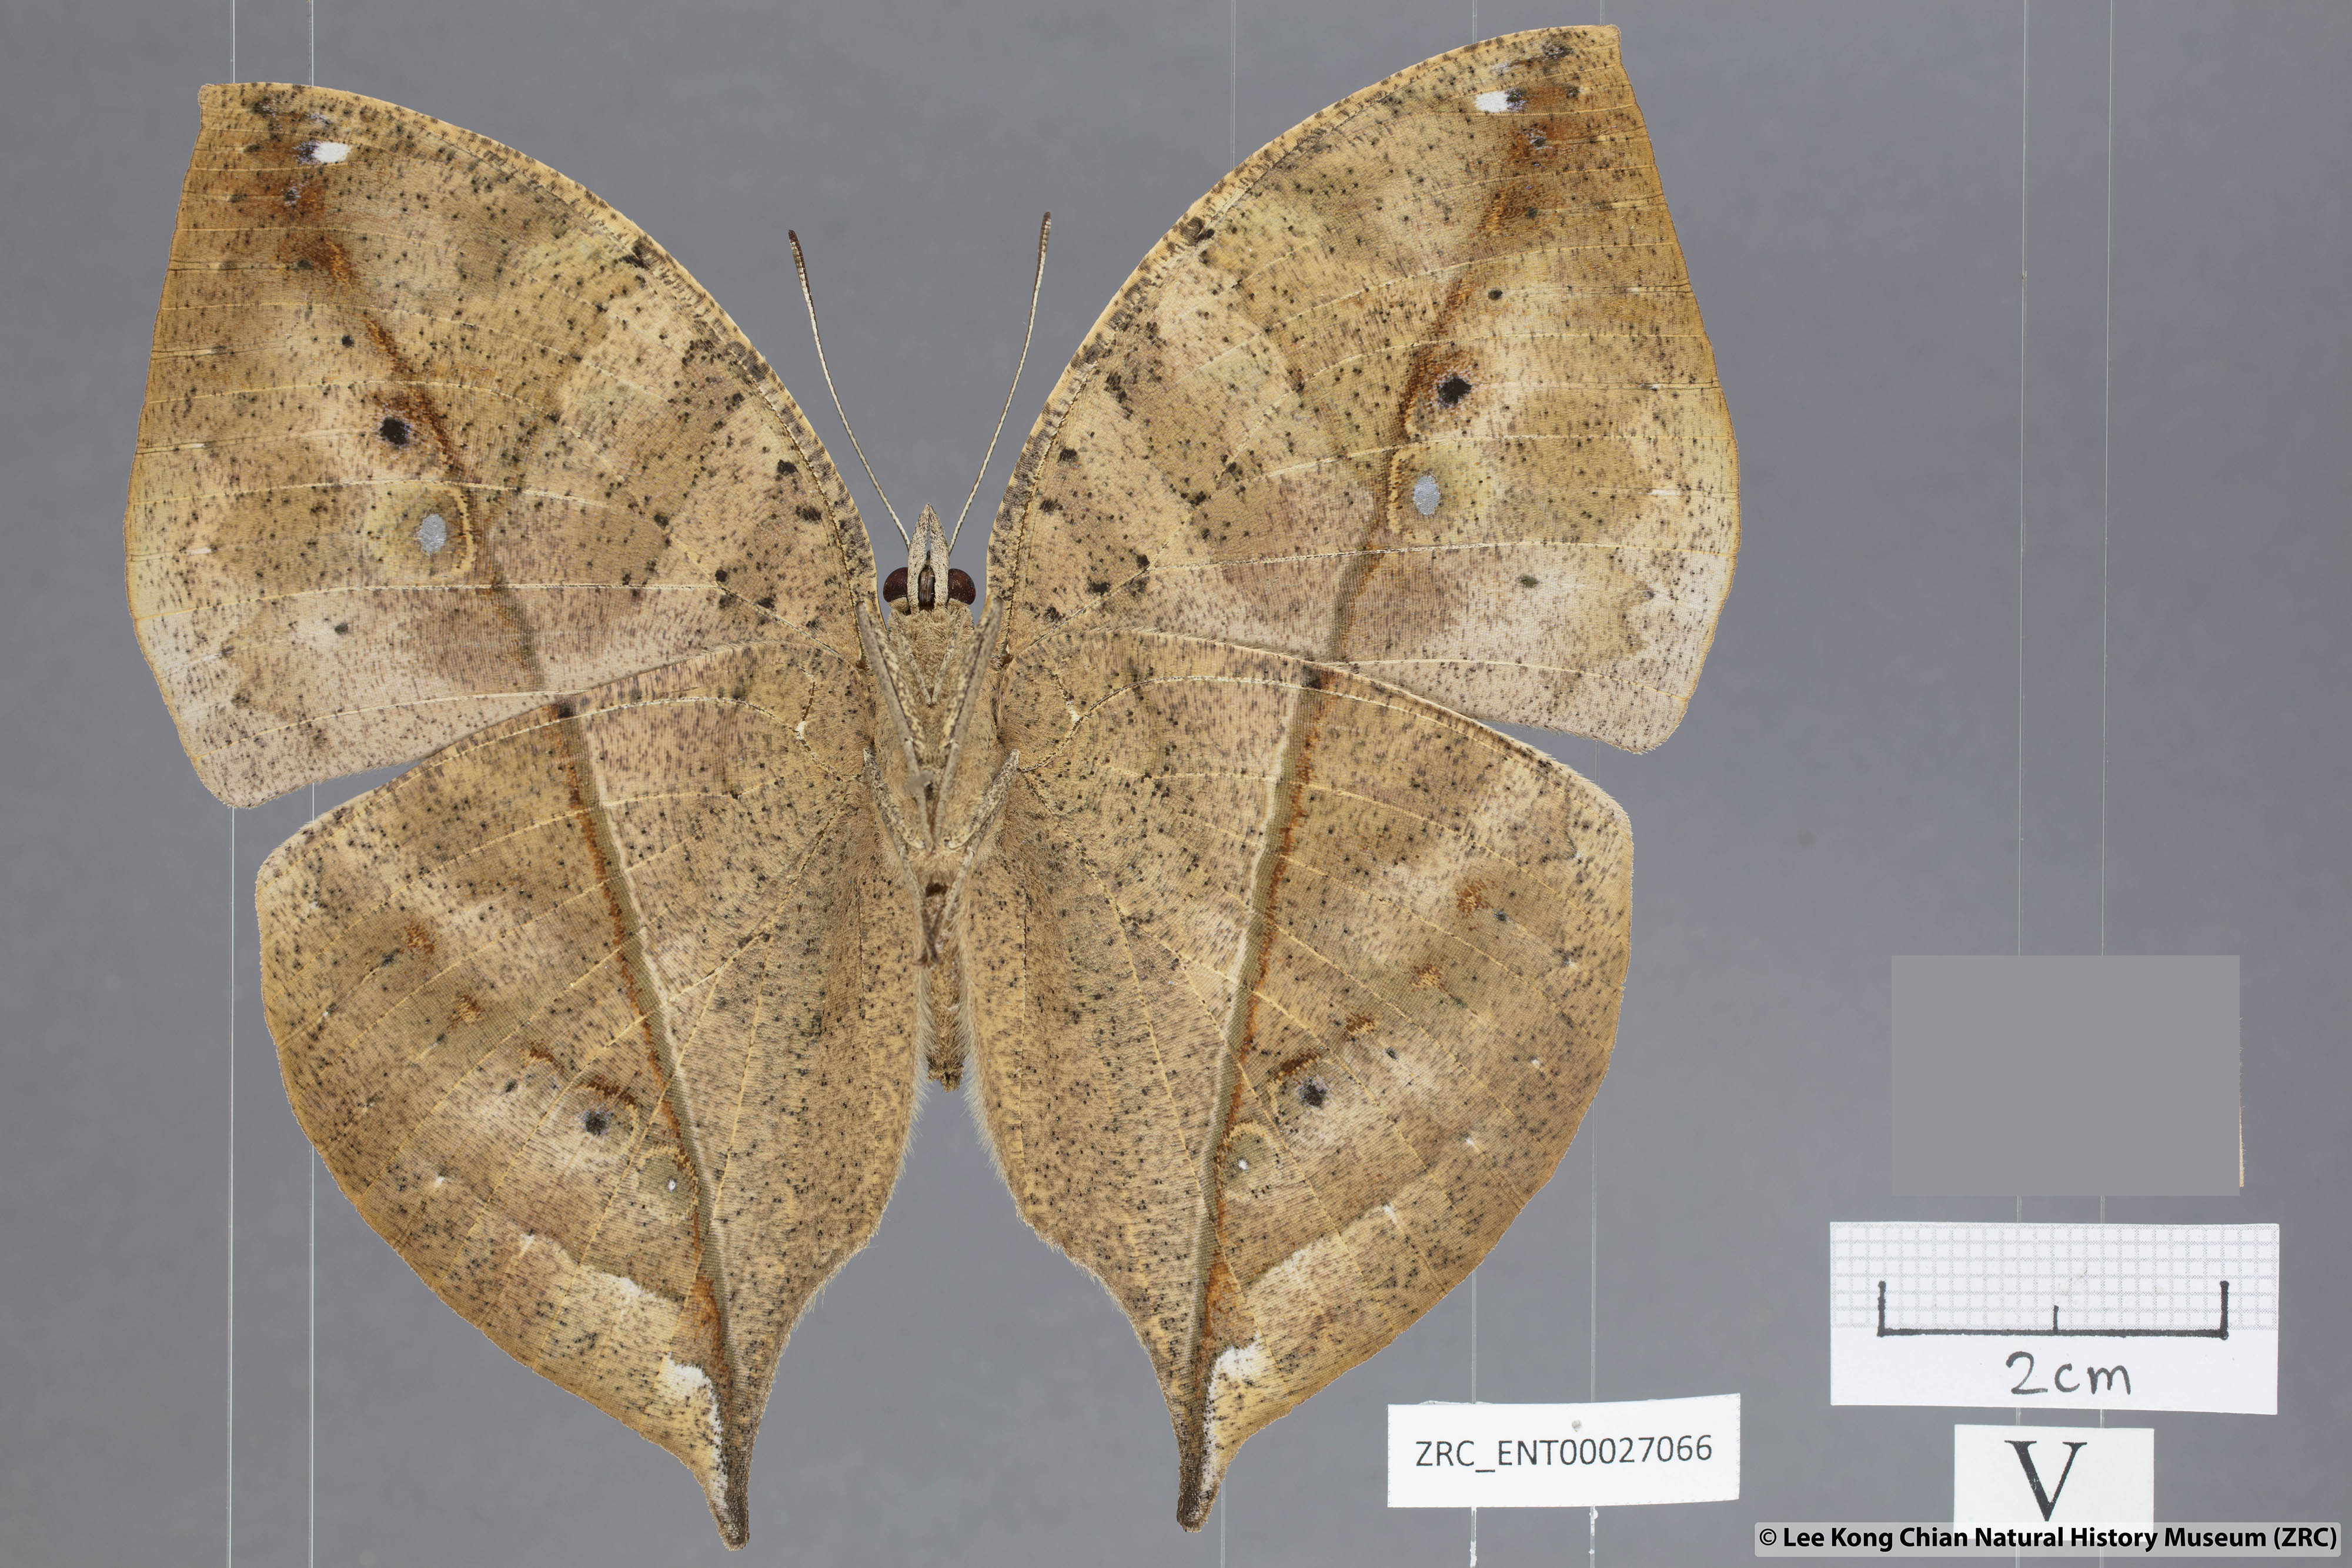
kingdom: Animalia
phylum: Arthropoda
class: Insecta
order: Lepidoptera
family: Nymphalidae
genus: Kallima
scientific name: Kallima paralekta
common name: Indian leafwing
